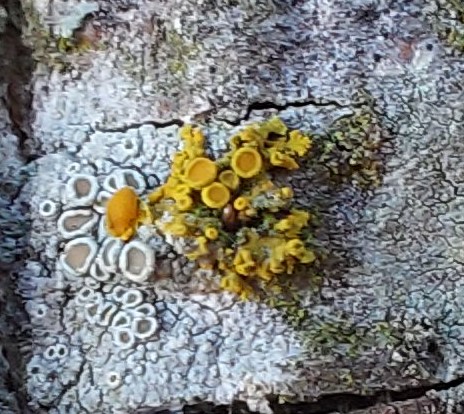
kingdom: Fungi
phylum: Ascomycota
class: Lecanoromycetes
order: Teloschistales
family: Teloschistaceae
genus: Polycauliona
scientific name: Polycauliona polycarpa
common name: mangefrugtet orangelav
